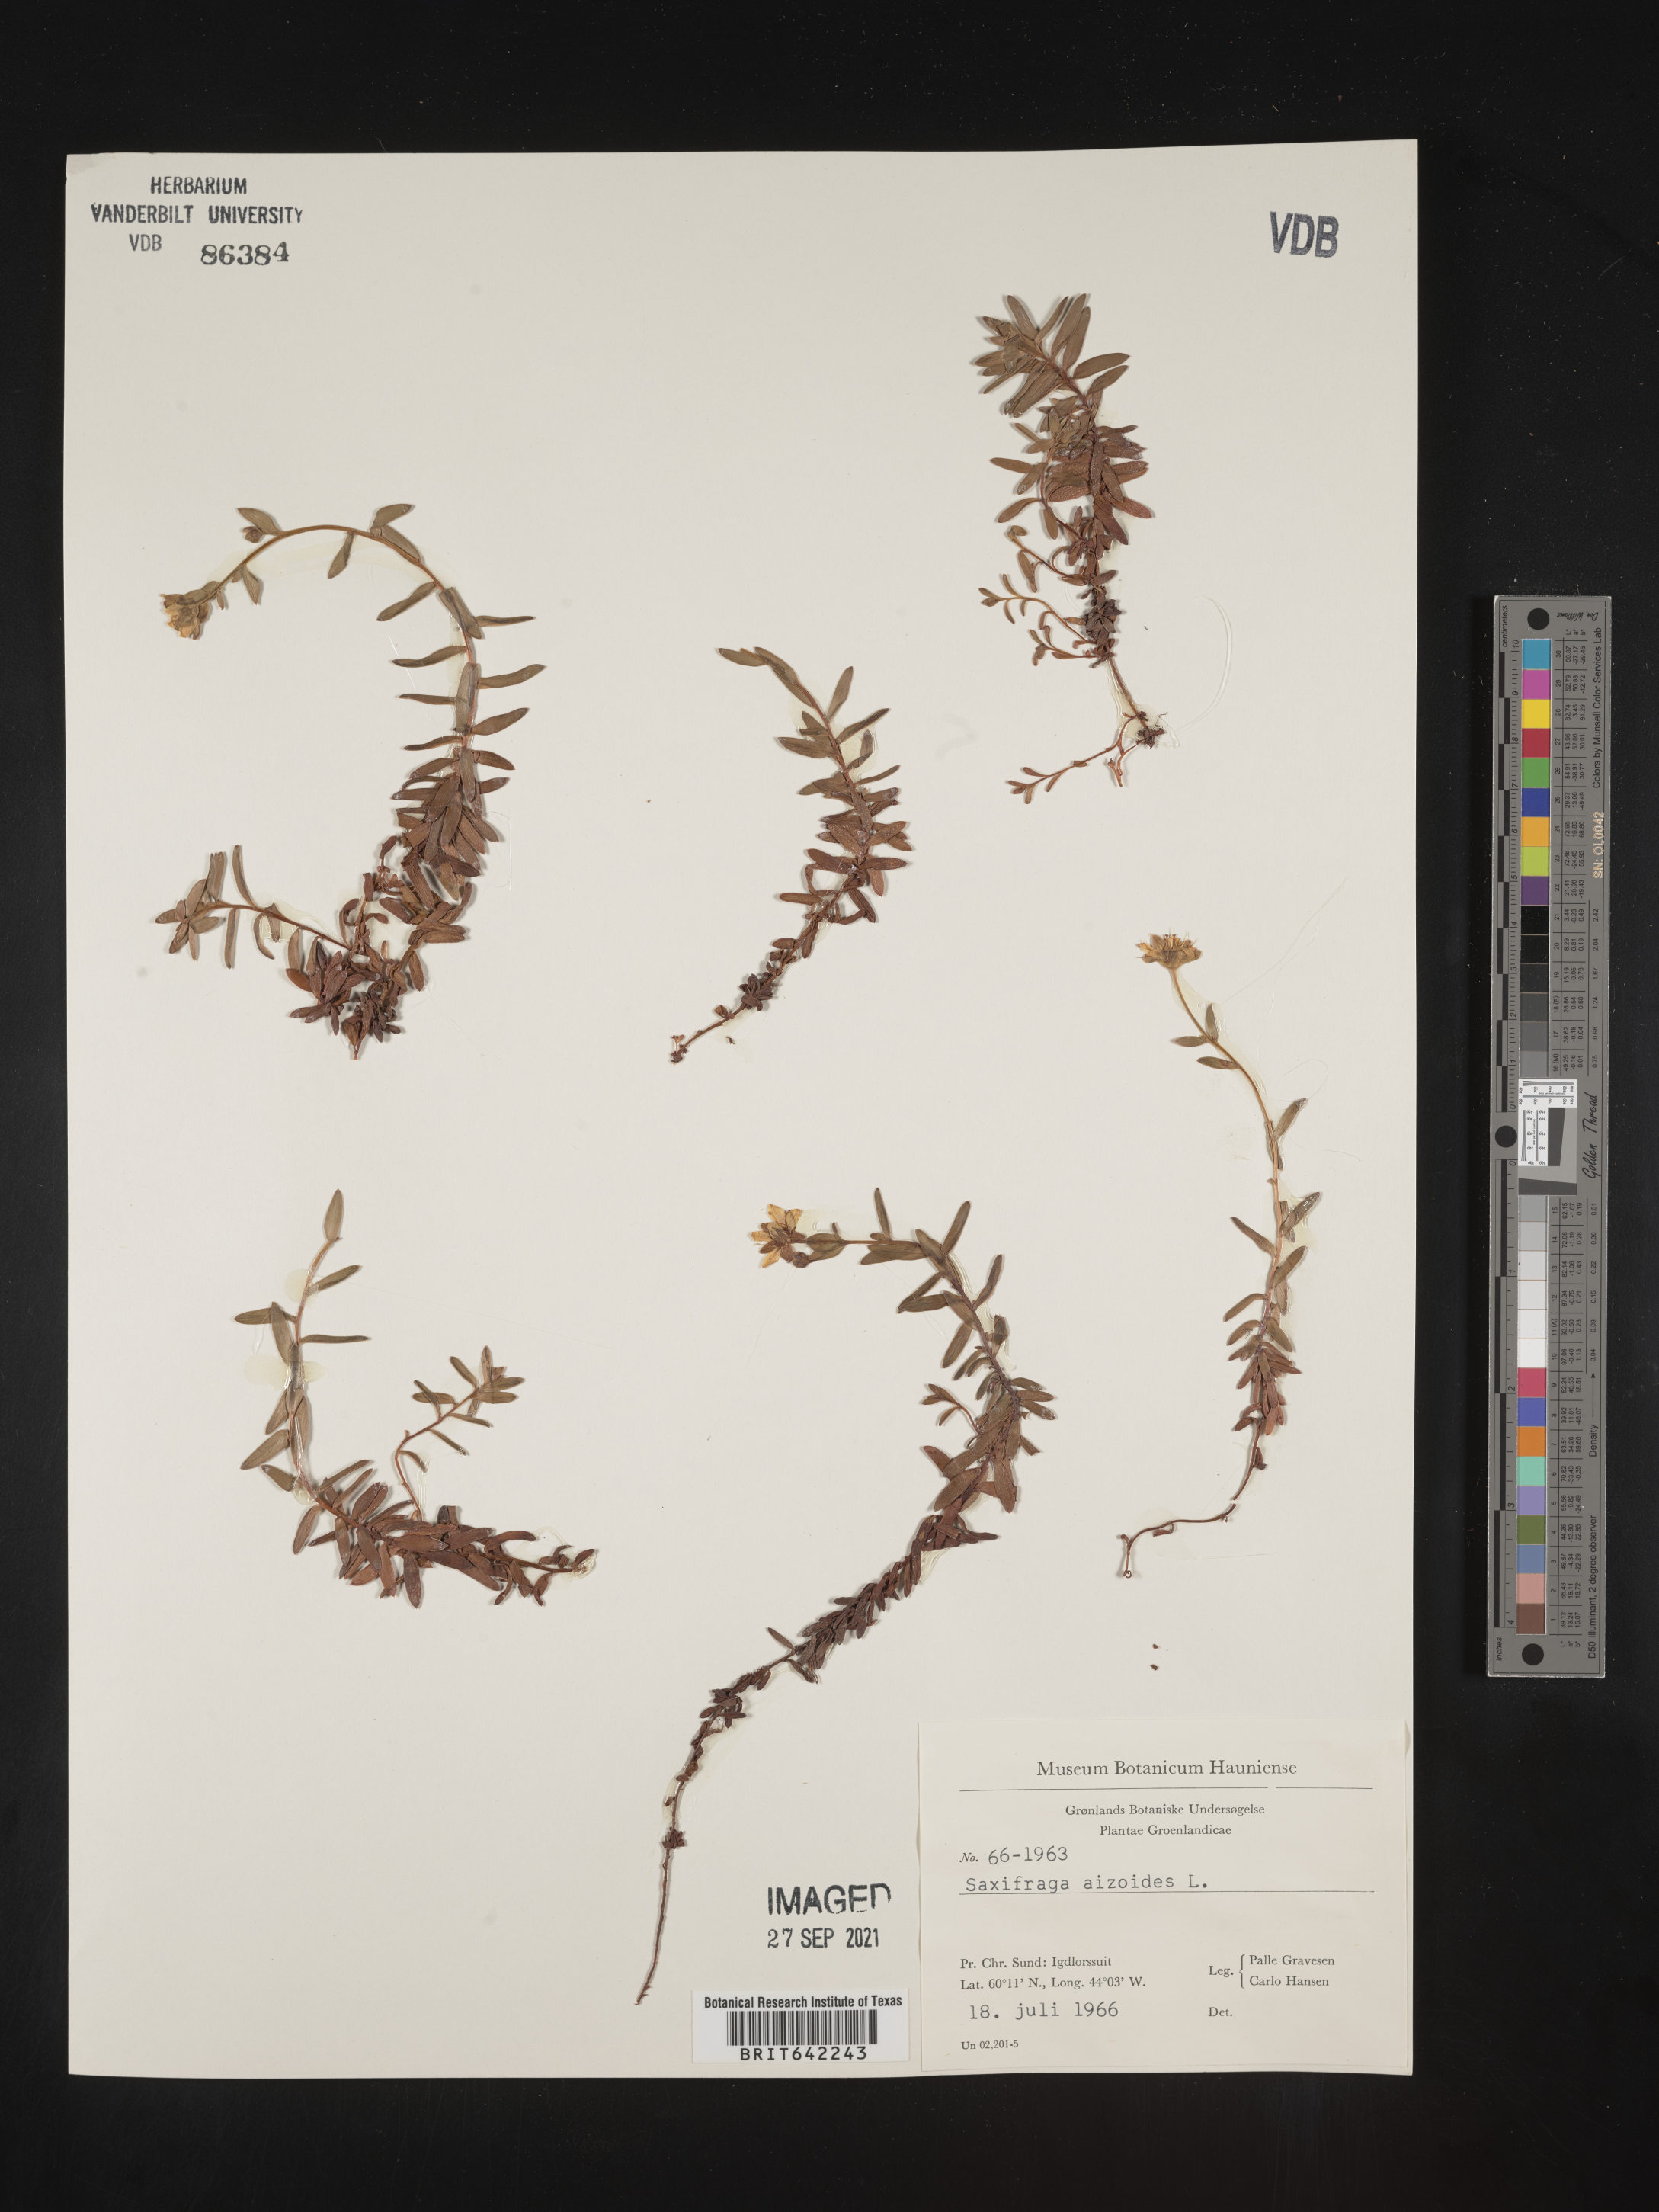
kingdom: Plantae
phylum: Tracheophyta
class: Magnoliopsida
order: Saxifragales
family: Saxifragaceae
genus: Saxifraga
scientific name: Saxifraga
